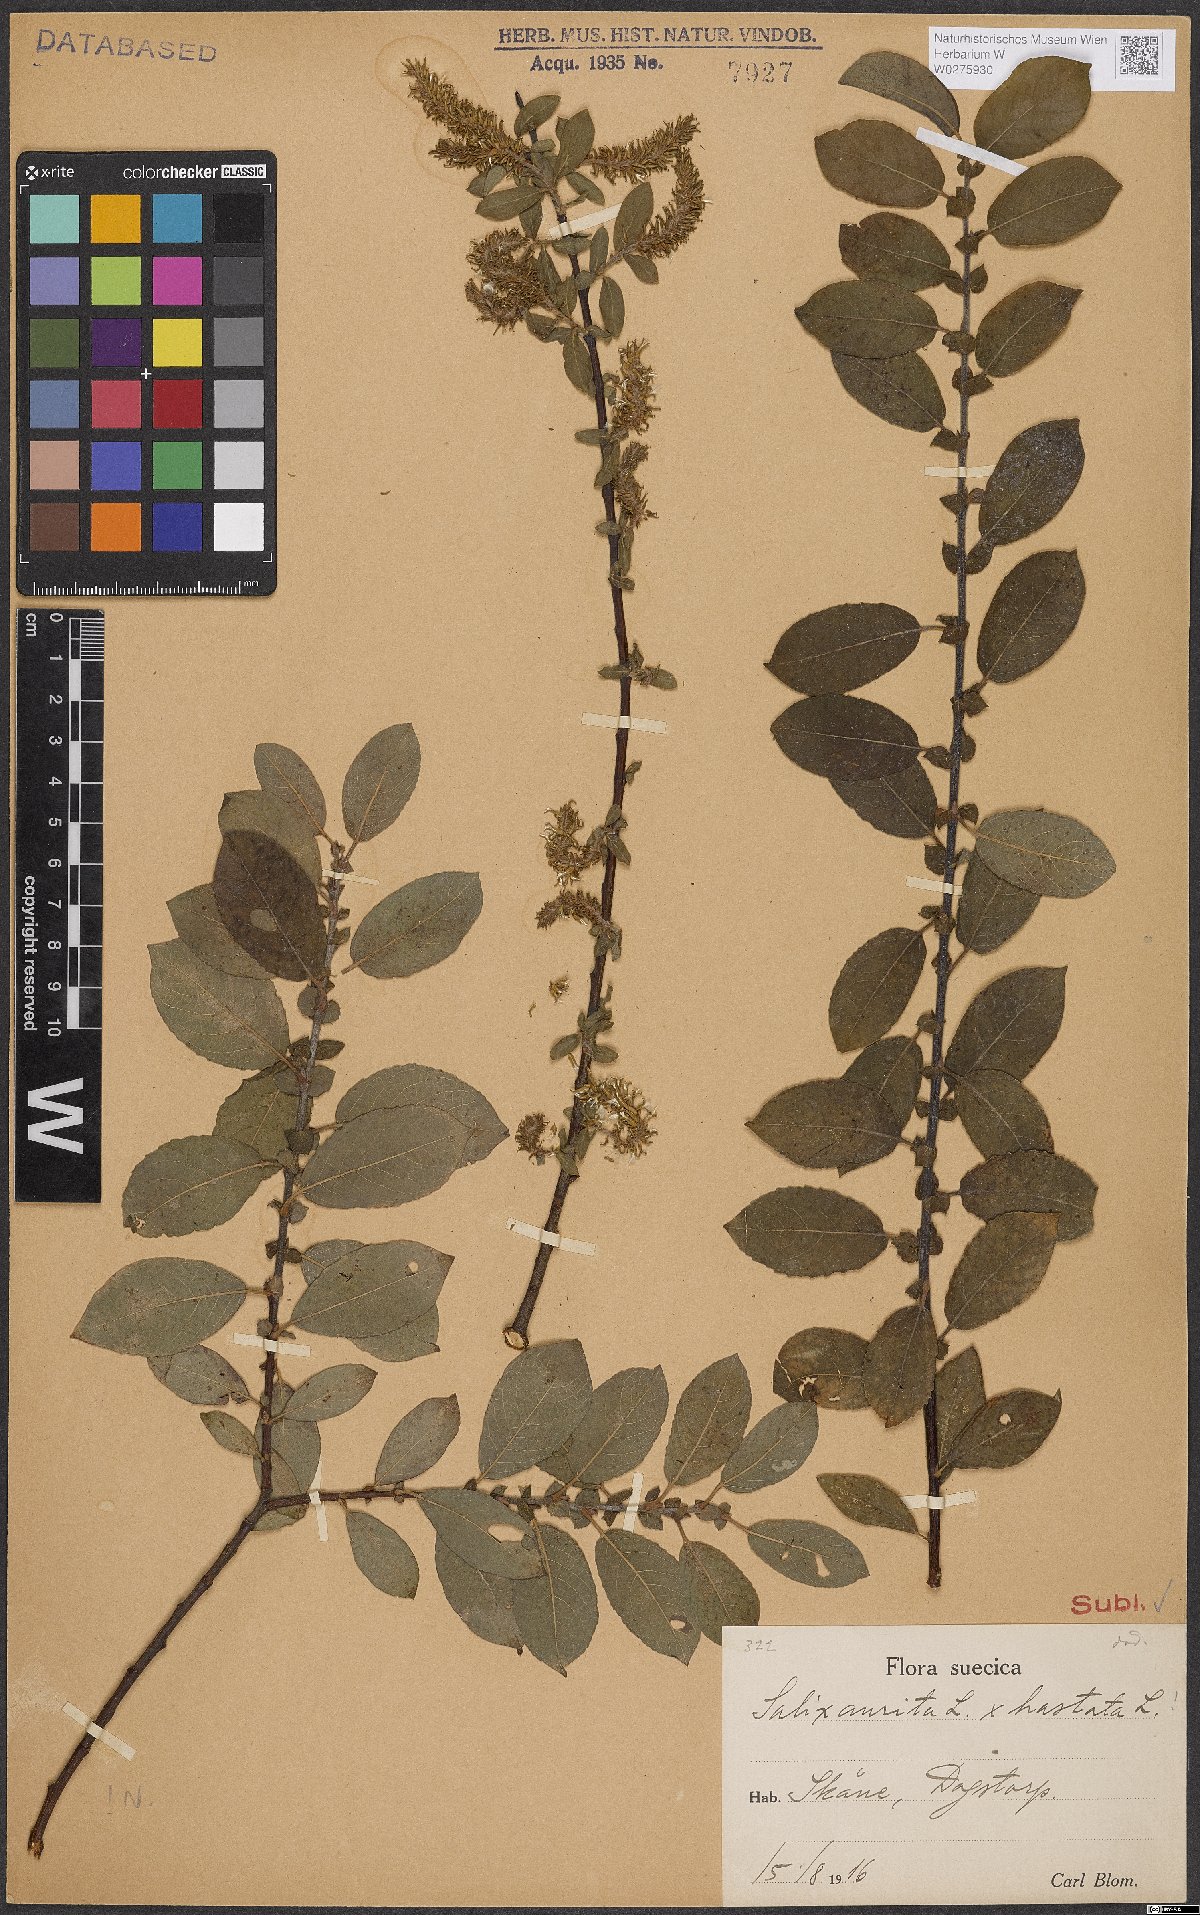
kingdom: Plantae
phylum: Tracheophyta
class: Magnoliopsida
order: Malpighiales
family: Salicaceae
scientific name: Salicaceae
